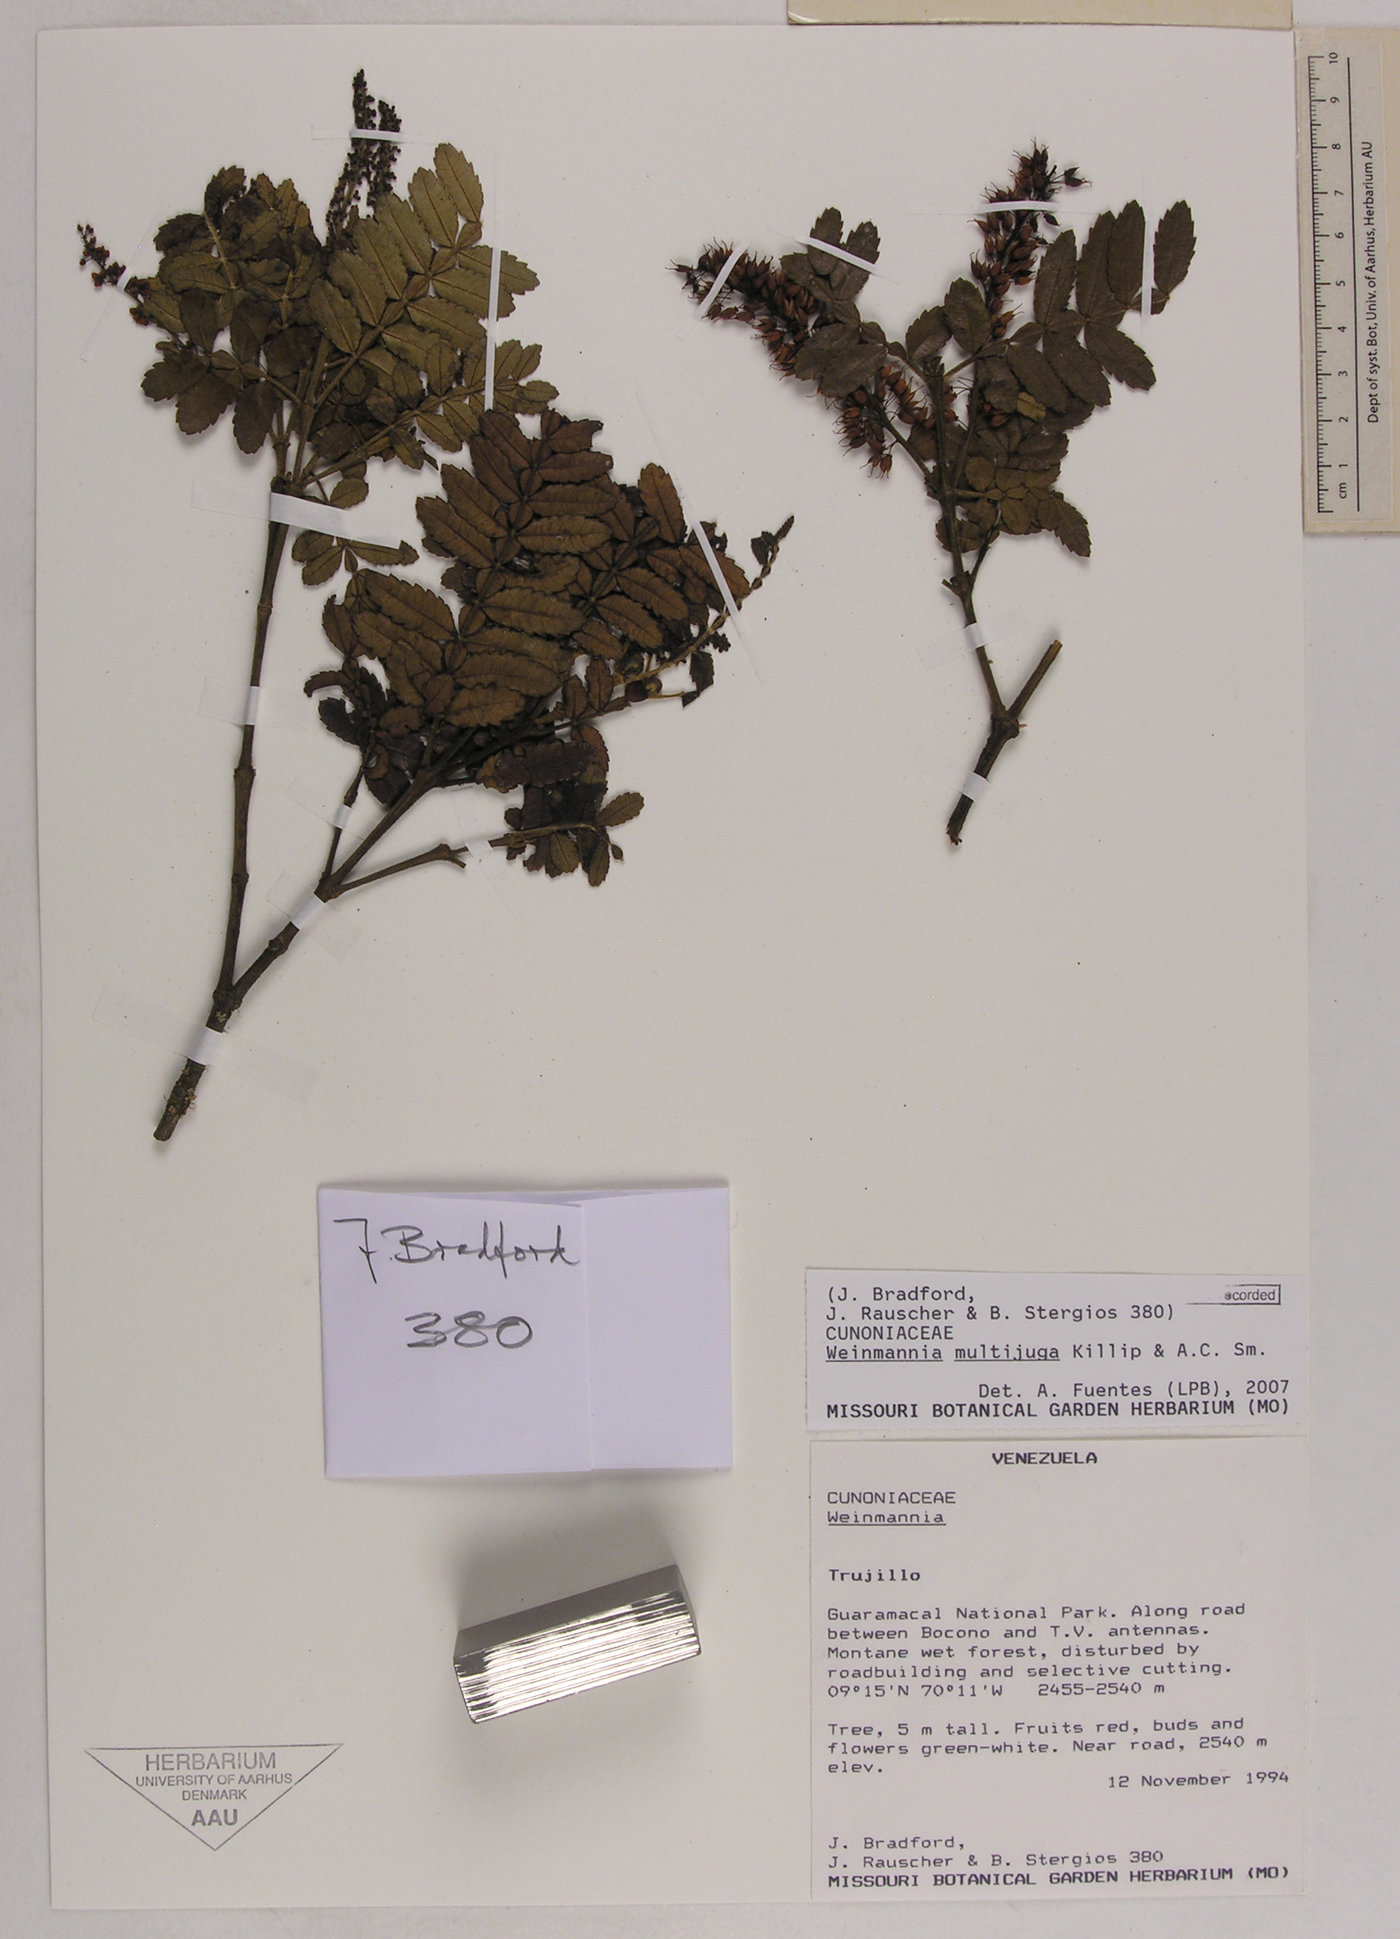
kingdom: Plantae
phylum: Tracheophyta
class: Magnoliopsida
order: Oxalidales
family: Cunoniaceae
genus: Weinmannia
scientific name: Weinmannia multijuga
